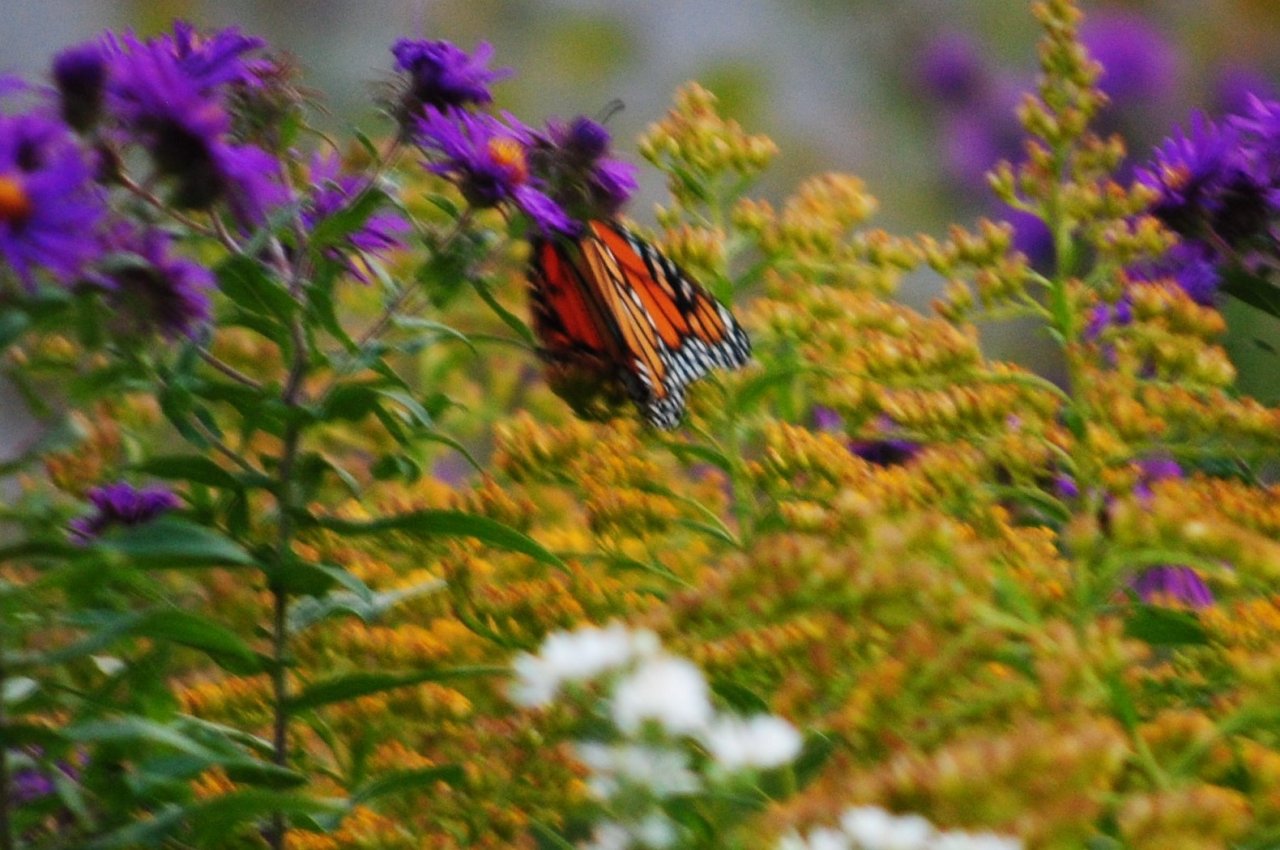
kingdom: Animalia
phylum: Arthropoda
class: Insecta
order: Lepidoptera
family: Nymphalidae
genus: Danaus
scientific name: Danaus plexippus
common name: Monarch
